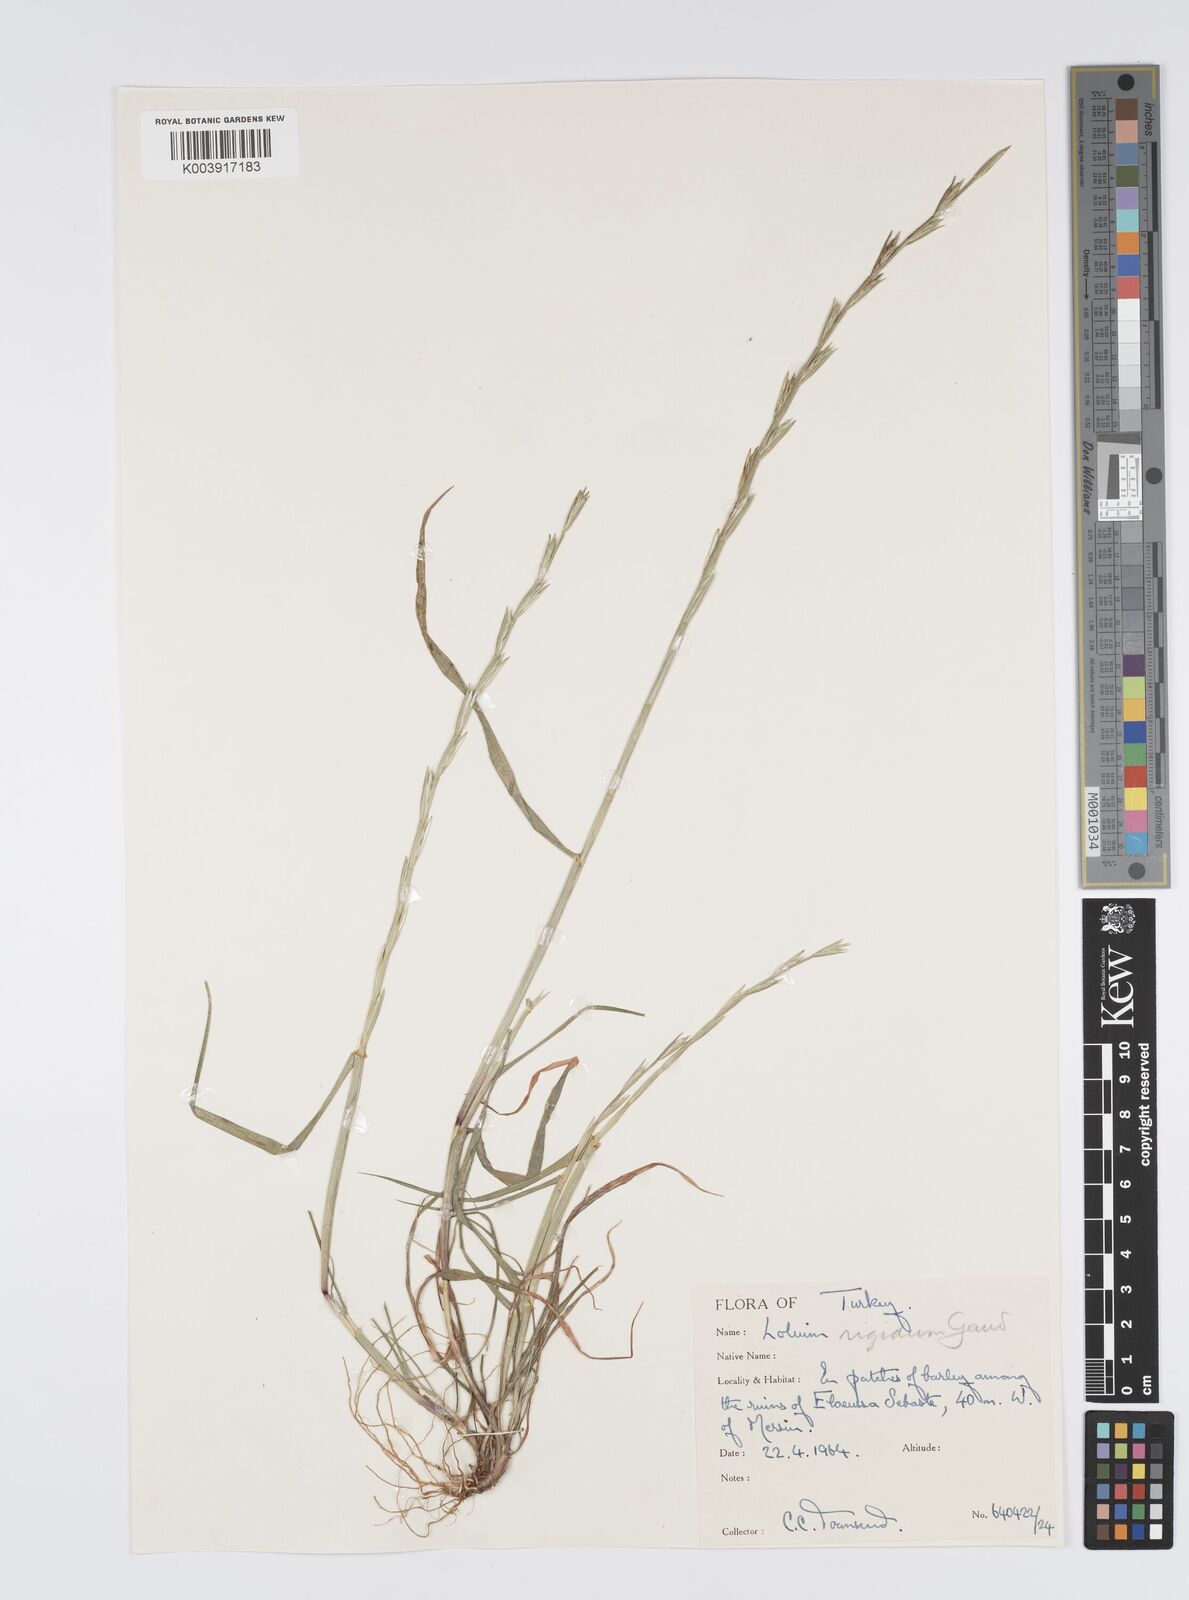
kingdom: Plantae
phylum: Tracheophyta
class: Liliopsida
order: Poales
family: Poaceae
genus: Lolium
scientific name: Lolium rigidum
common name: Wimmera ryegrass
